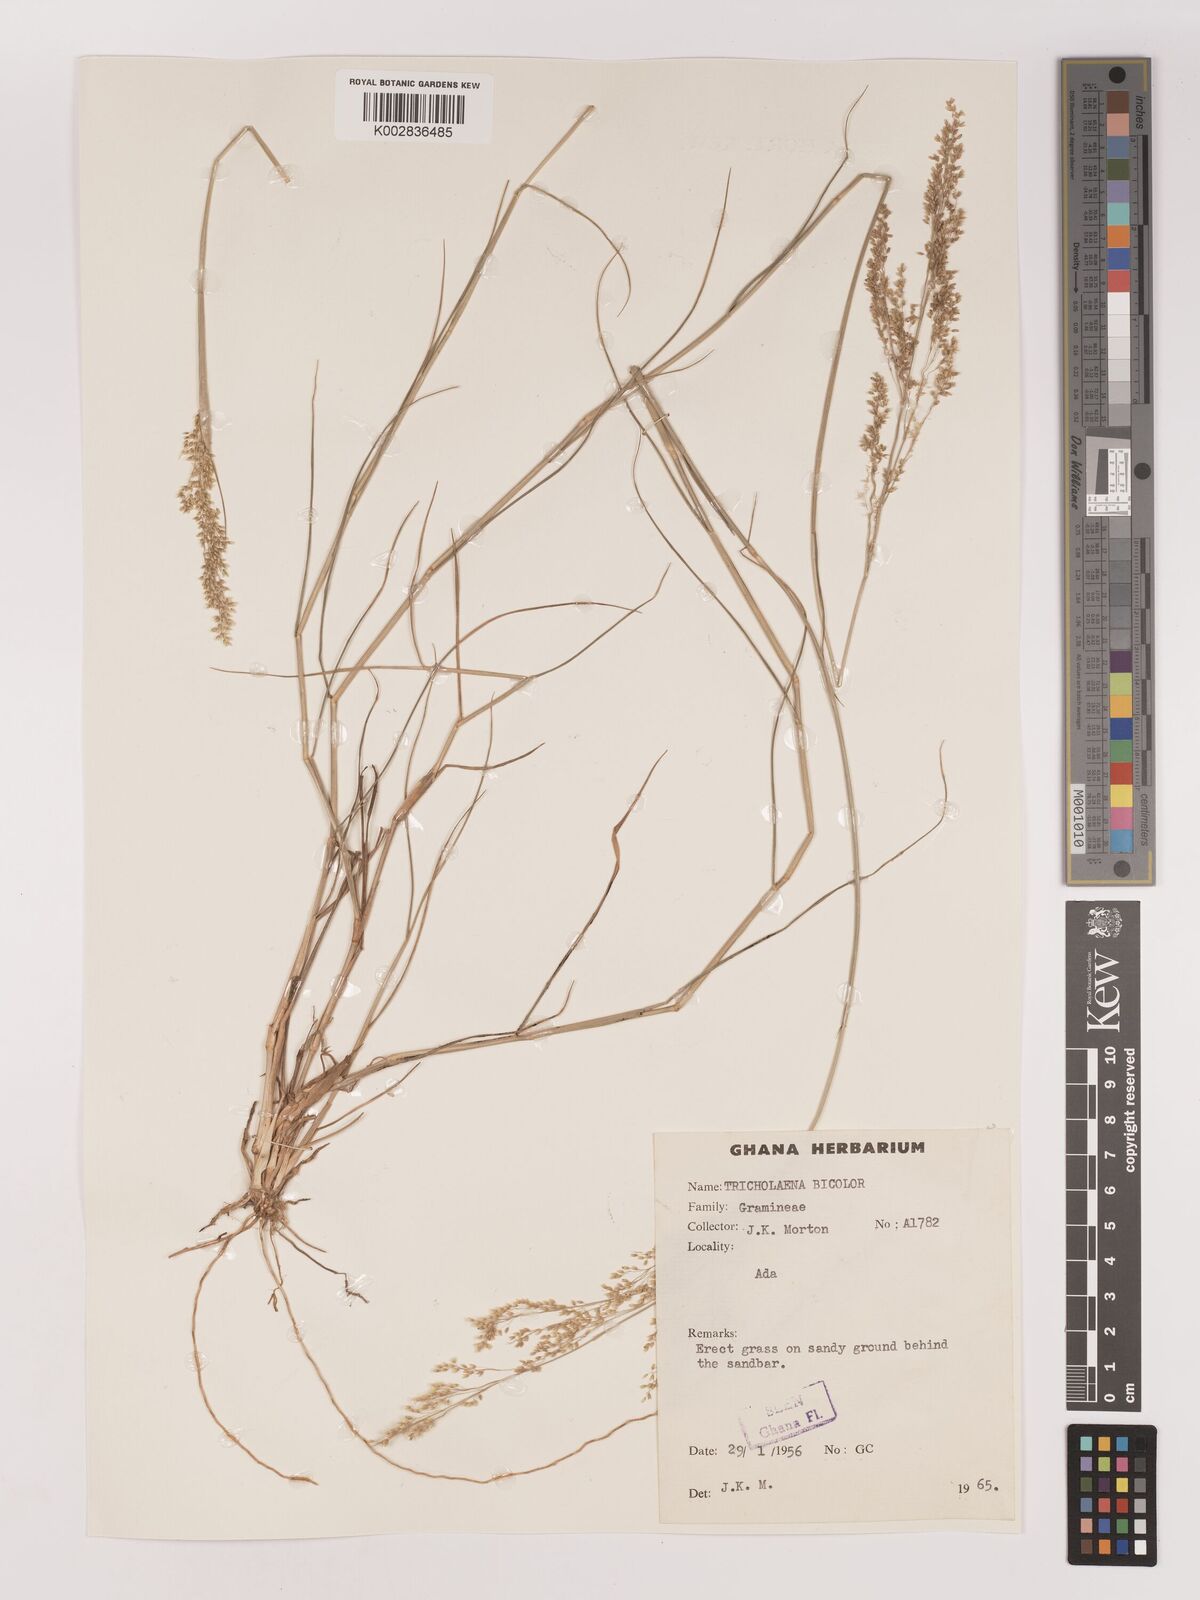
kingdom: Plantae
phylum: Tracheophyta
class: Liliopsida
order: Poales
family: Poaceae
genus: Tricholaena
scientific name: Tricholaena monachne
